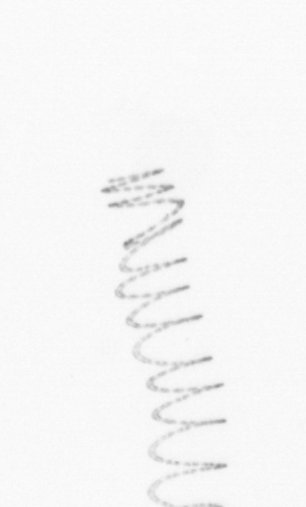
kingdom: Chromista
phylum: Ochrophyta
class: Bacillariophyceae
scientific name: Bacillariophyceae
